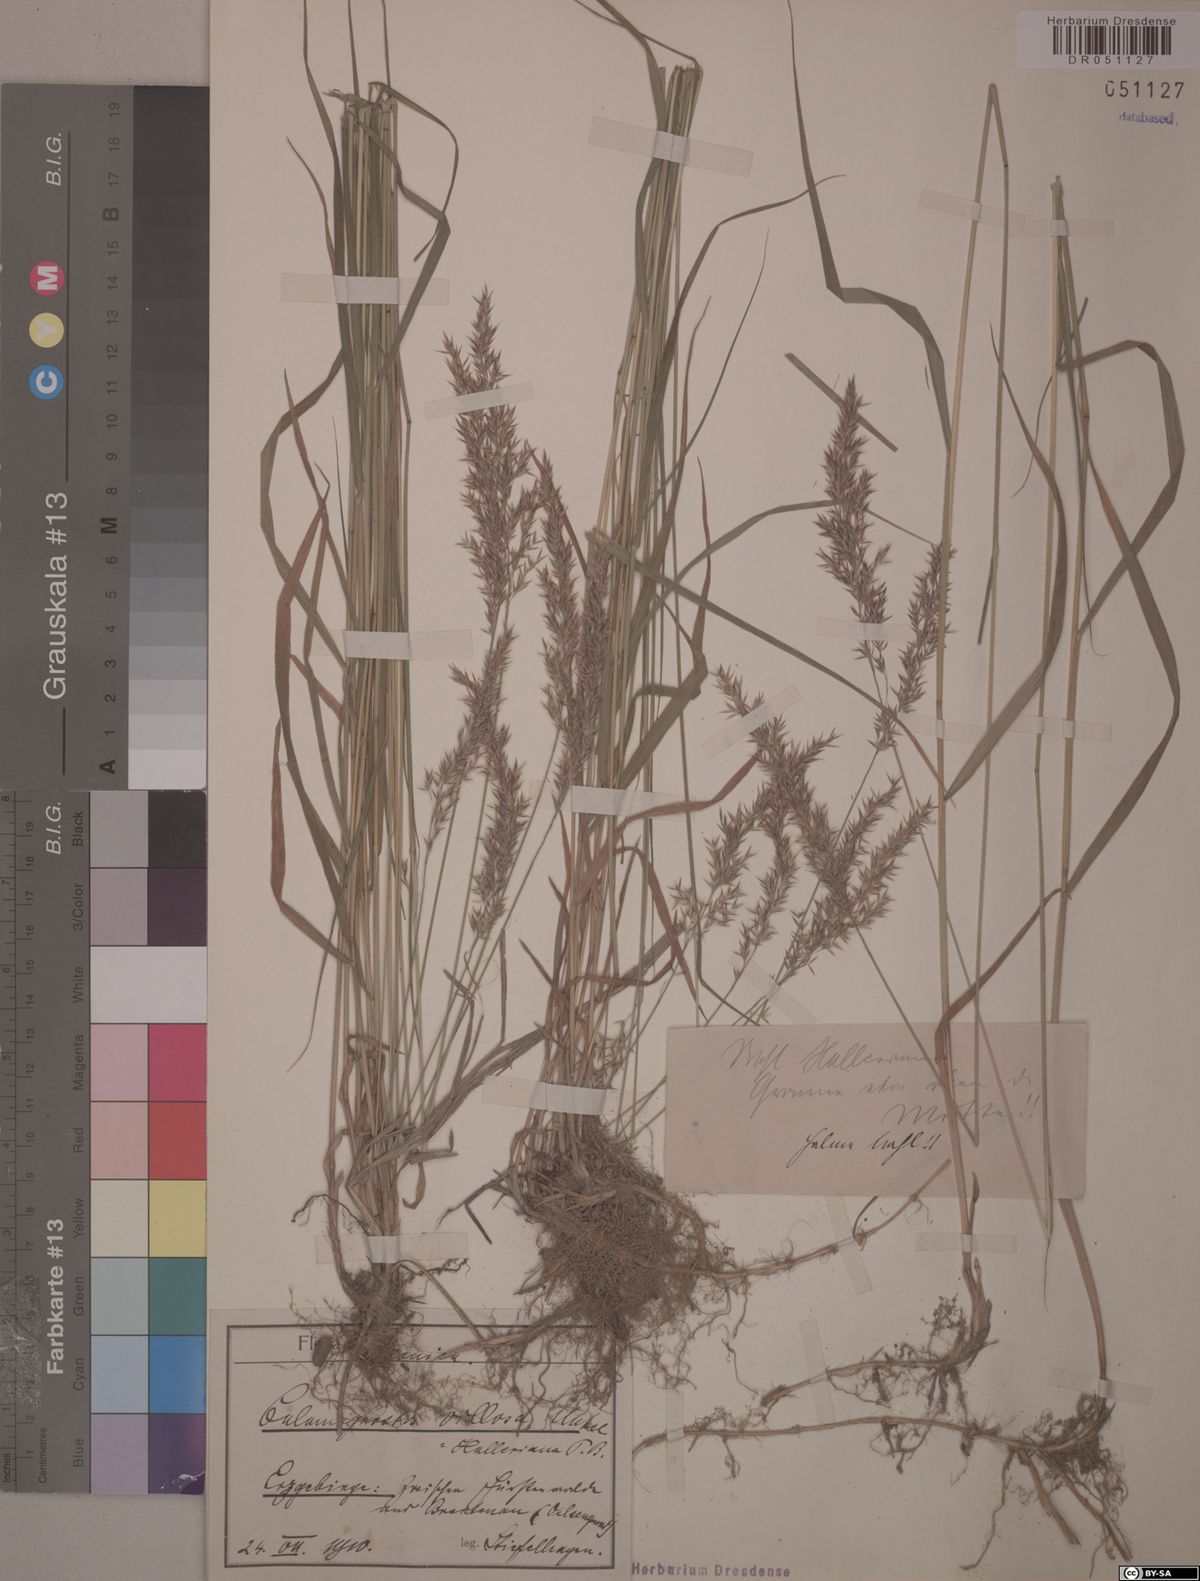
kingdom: Plantae
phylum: Tracheophyta
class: Liliopsida
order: Poales
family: Poaceae
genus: Calamagrostis
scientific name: Calamagrostis villosa
